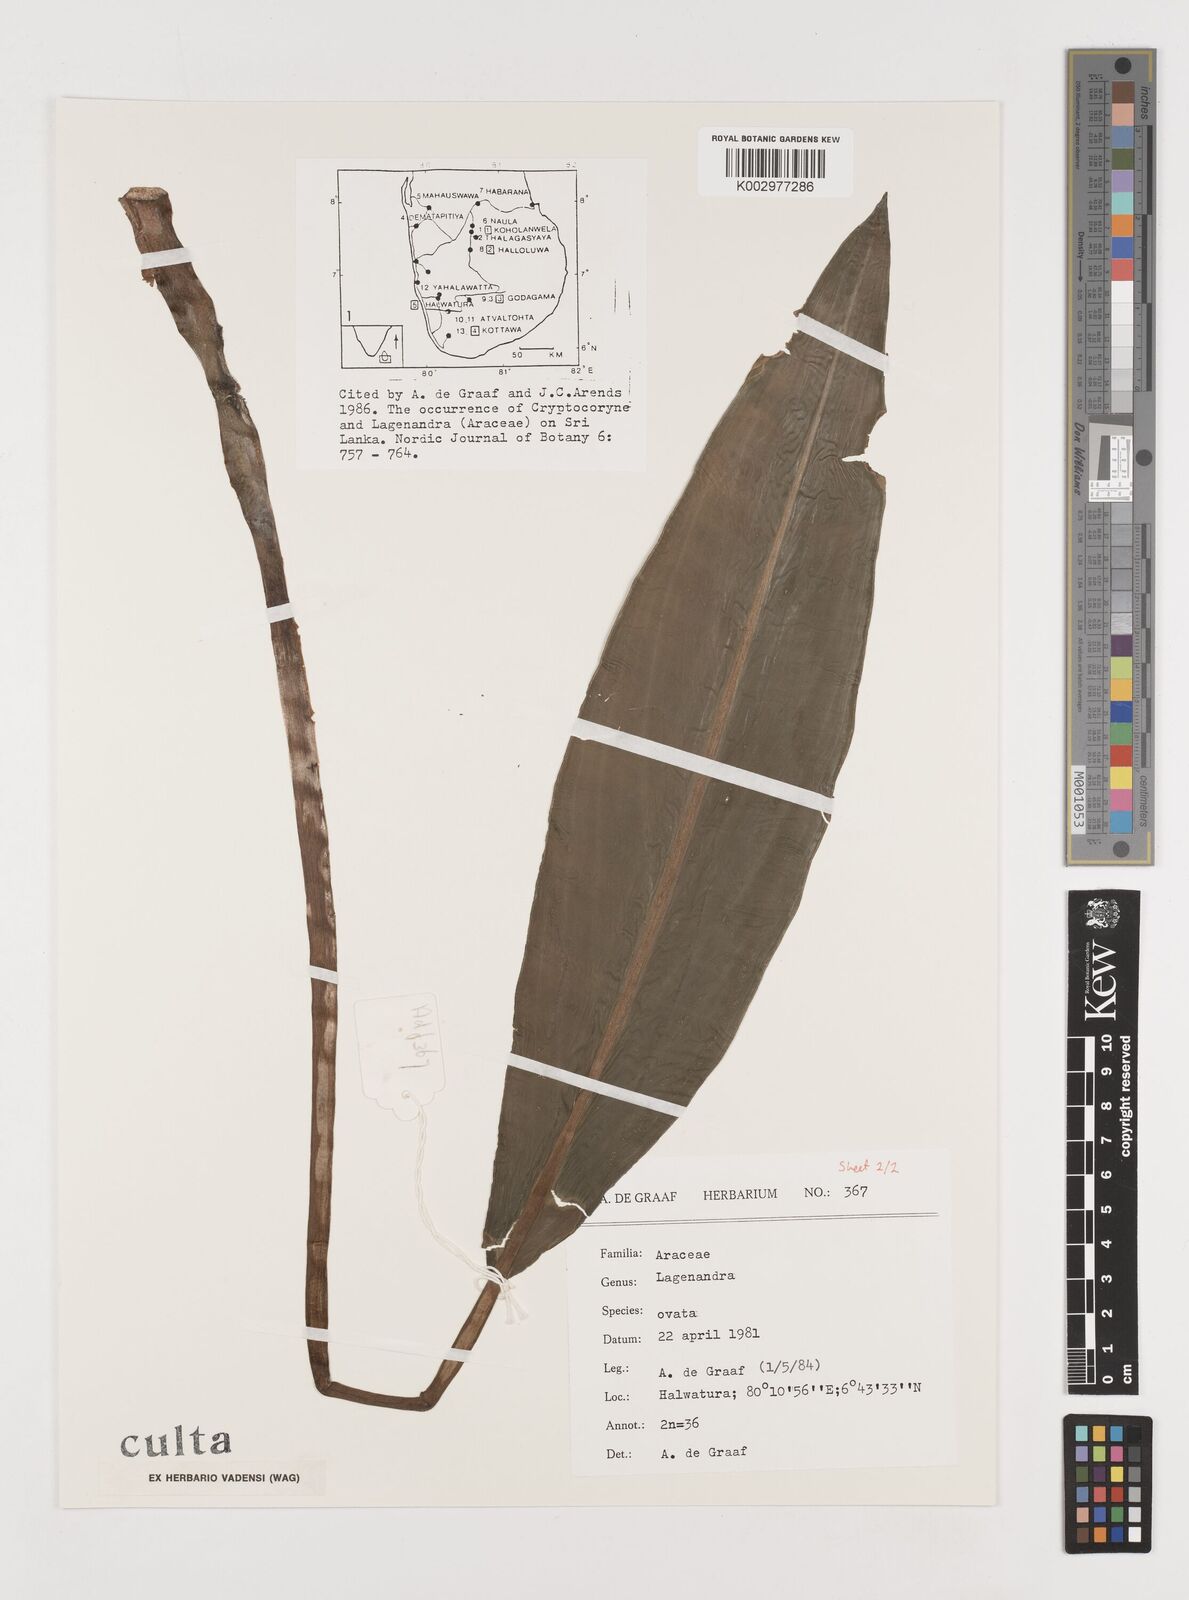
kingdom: Plantae
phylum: Tracheophyta
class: Liliopsida
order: Alismatales
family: Araceae
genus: Lagenandra
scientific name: Lagenandra ovata
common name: Malayan sword
